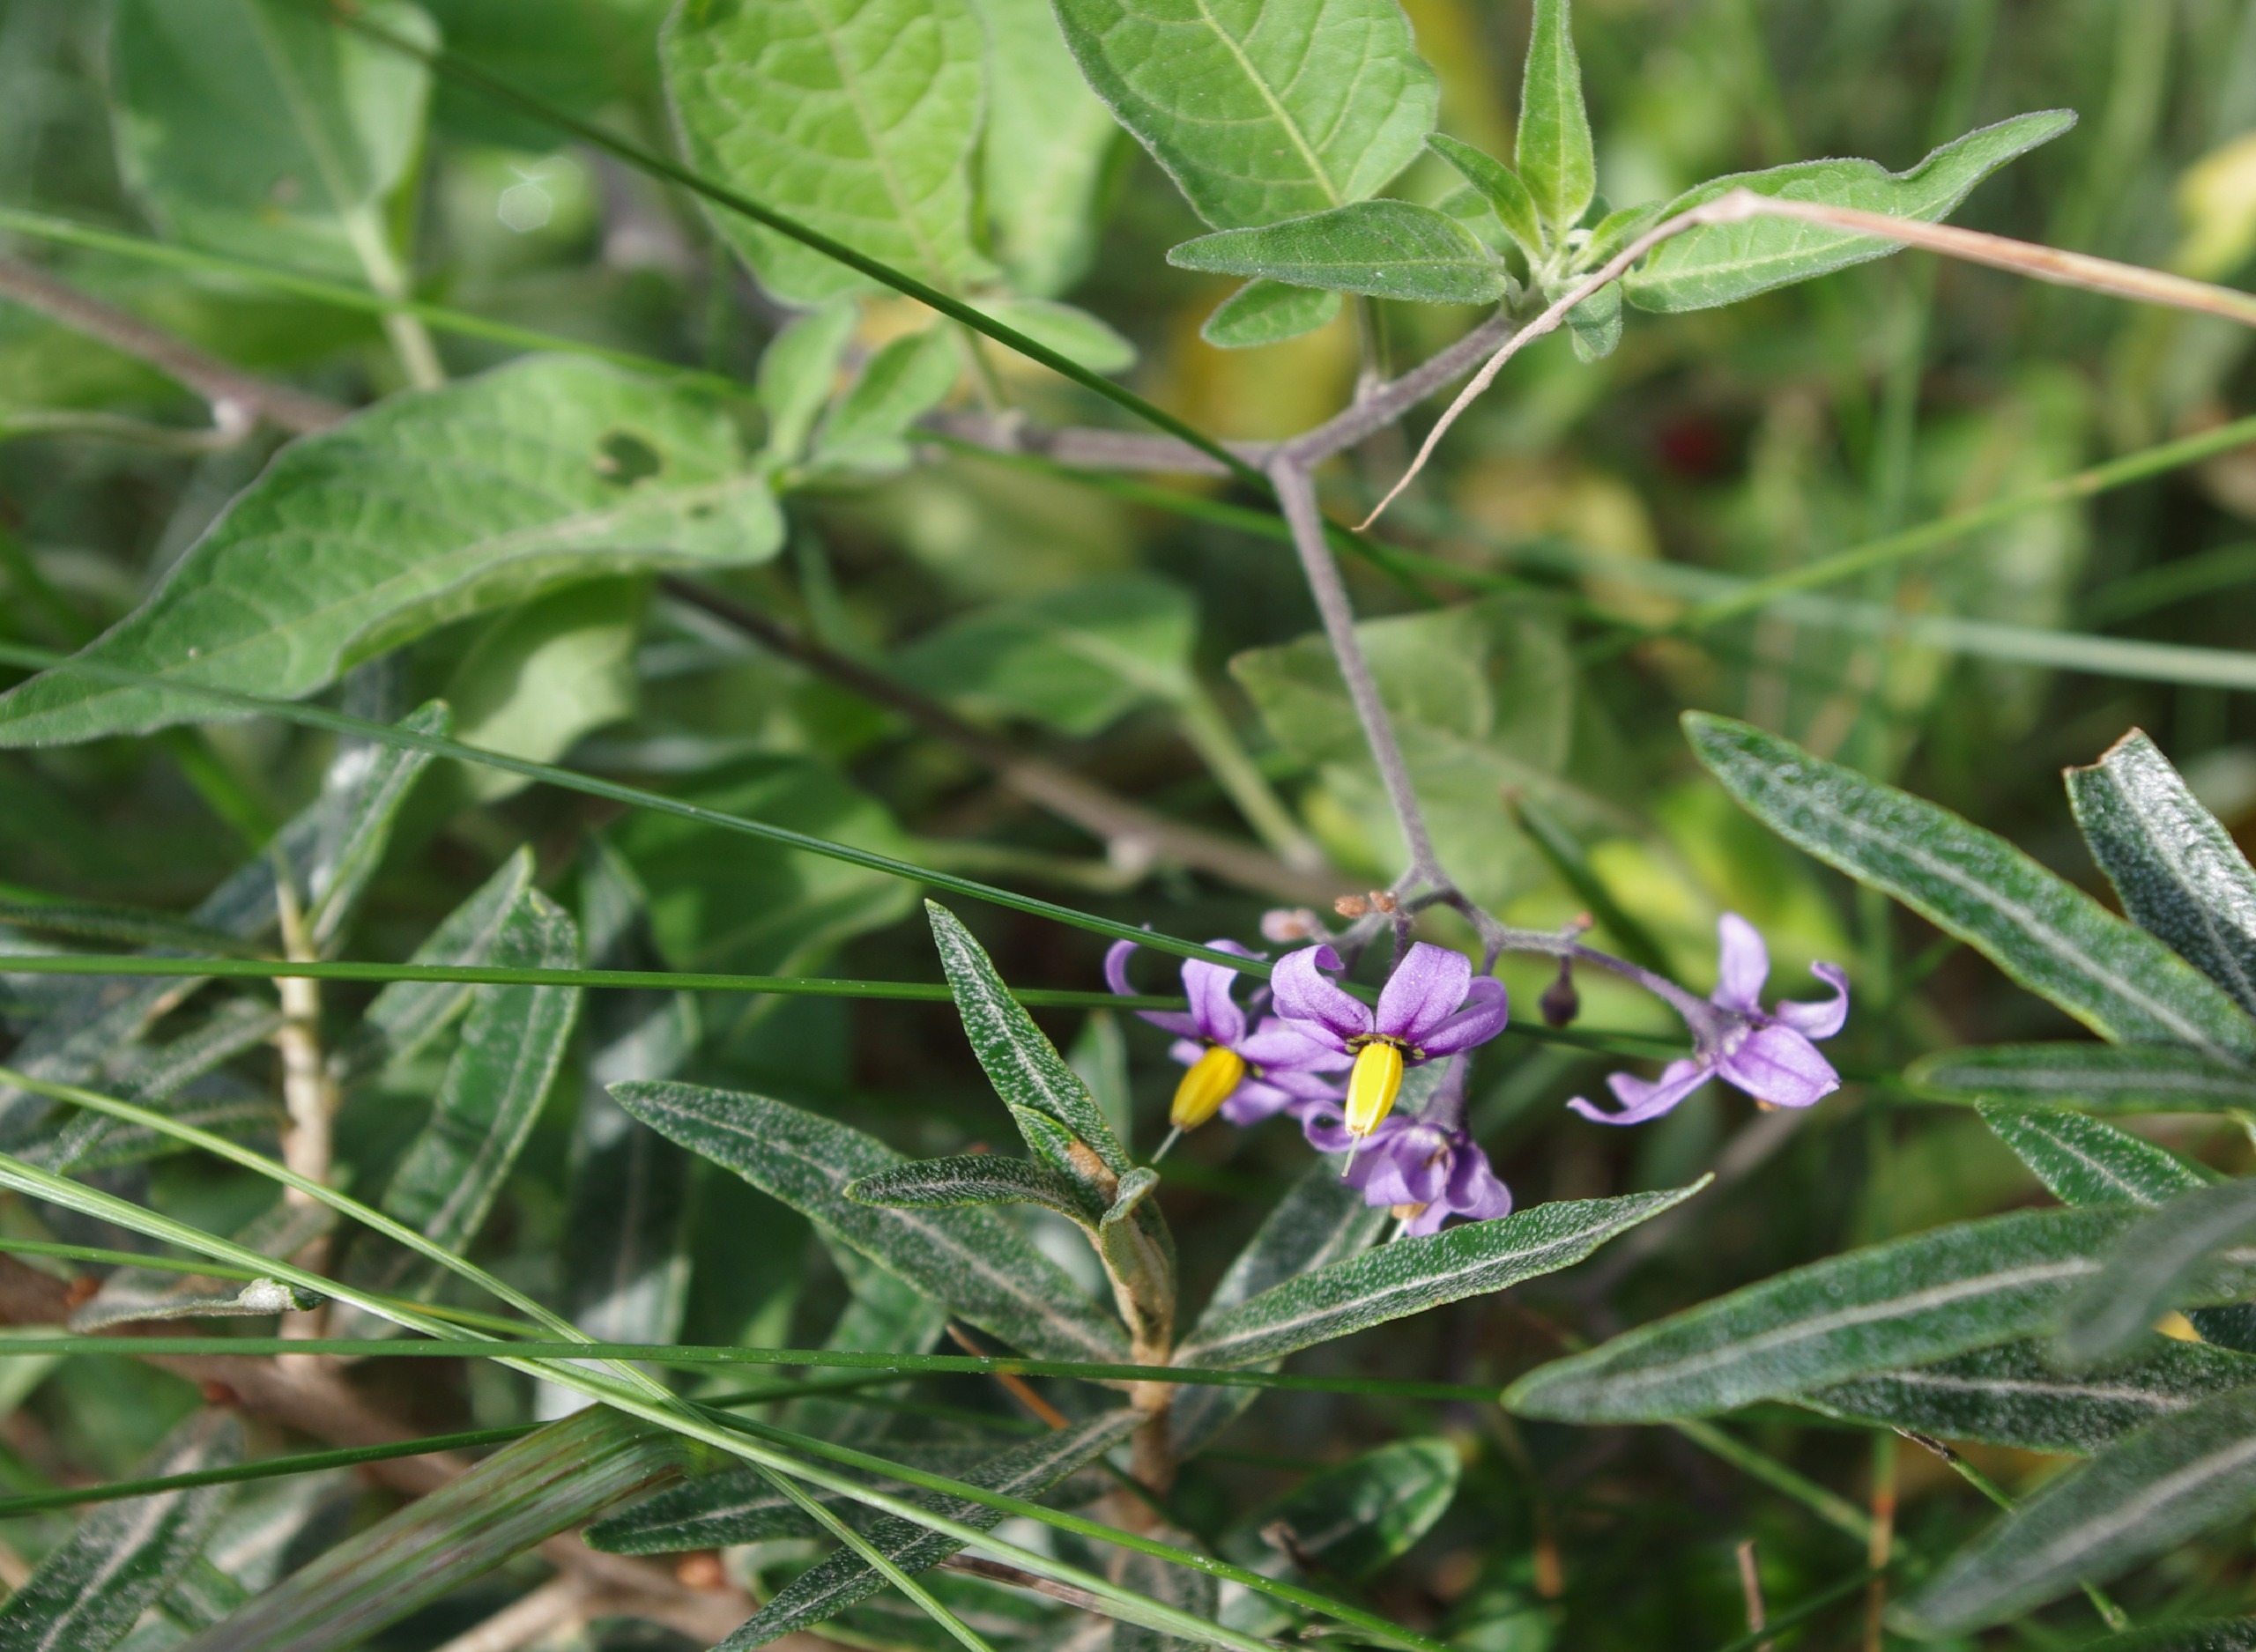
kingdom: Plantae
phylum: Tracheophyta
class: Magnoliopsida
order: Solanales
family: Solanaceae
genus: Solanum
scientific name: Solanum dulcamara
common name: Bittersød natskygge
